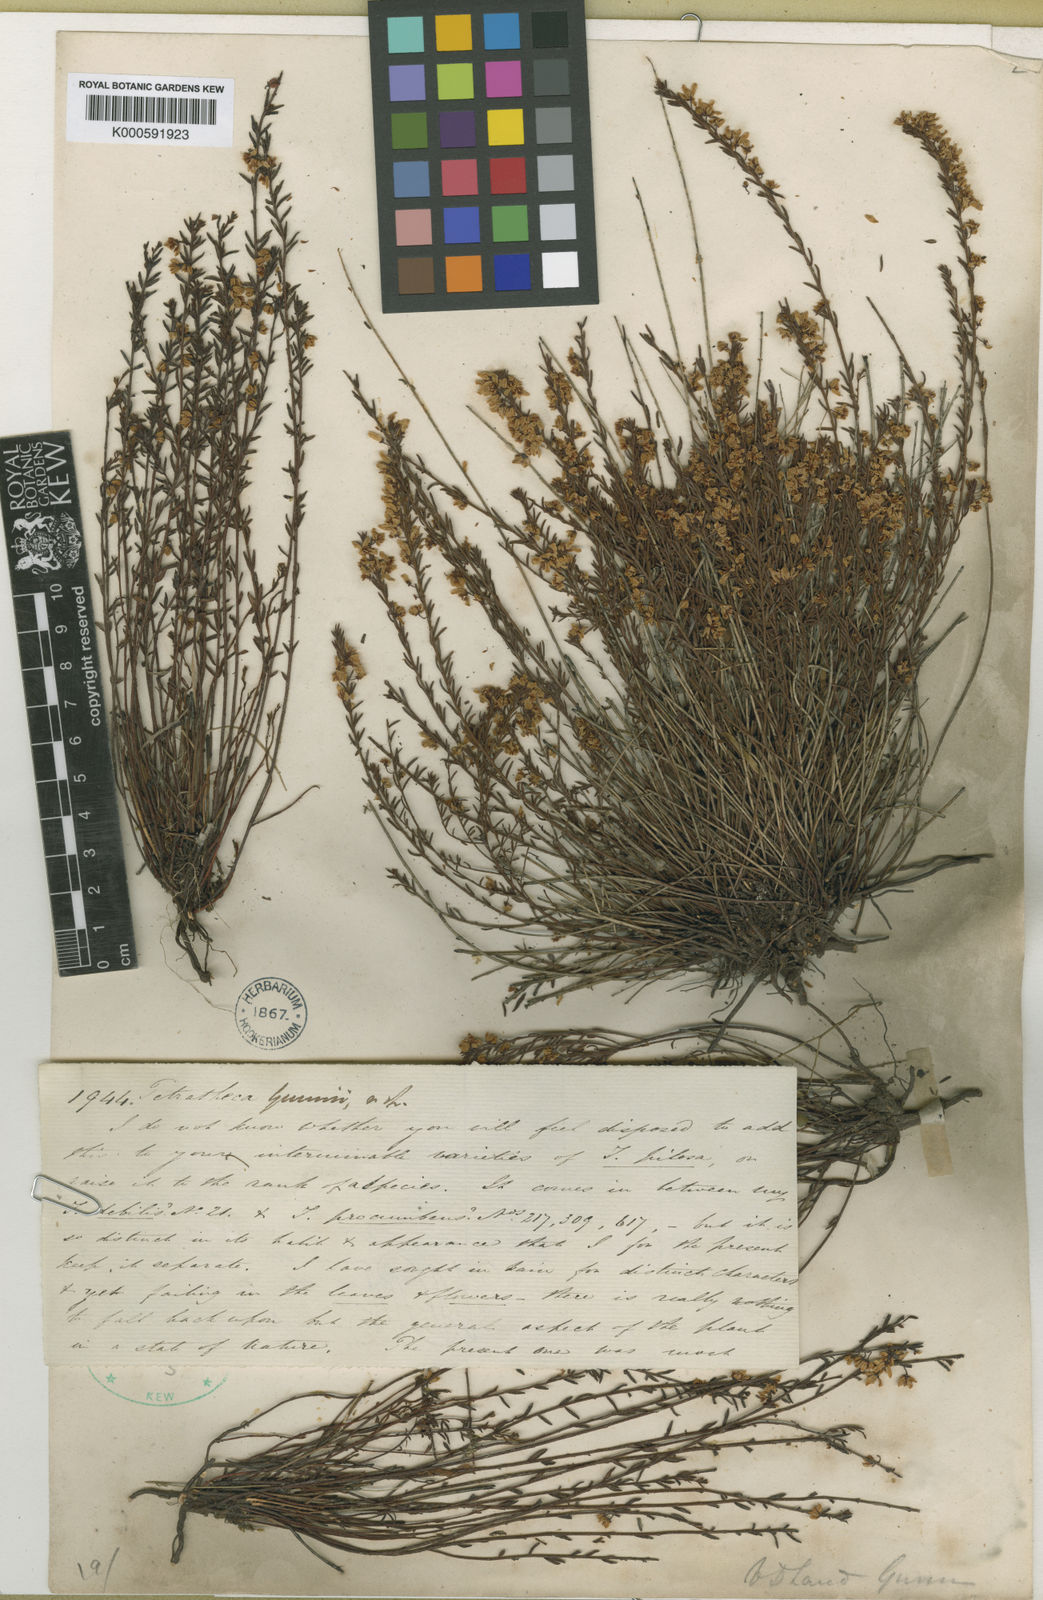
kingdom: Plantae
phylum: Tracheophyta
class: Magnoliopsida
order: Oxalidales
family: Elaeocarpaceae
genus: Tetratheca
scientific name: Tetratheca gunnii
